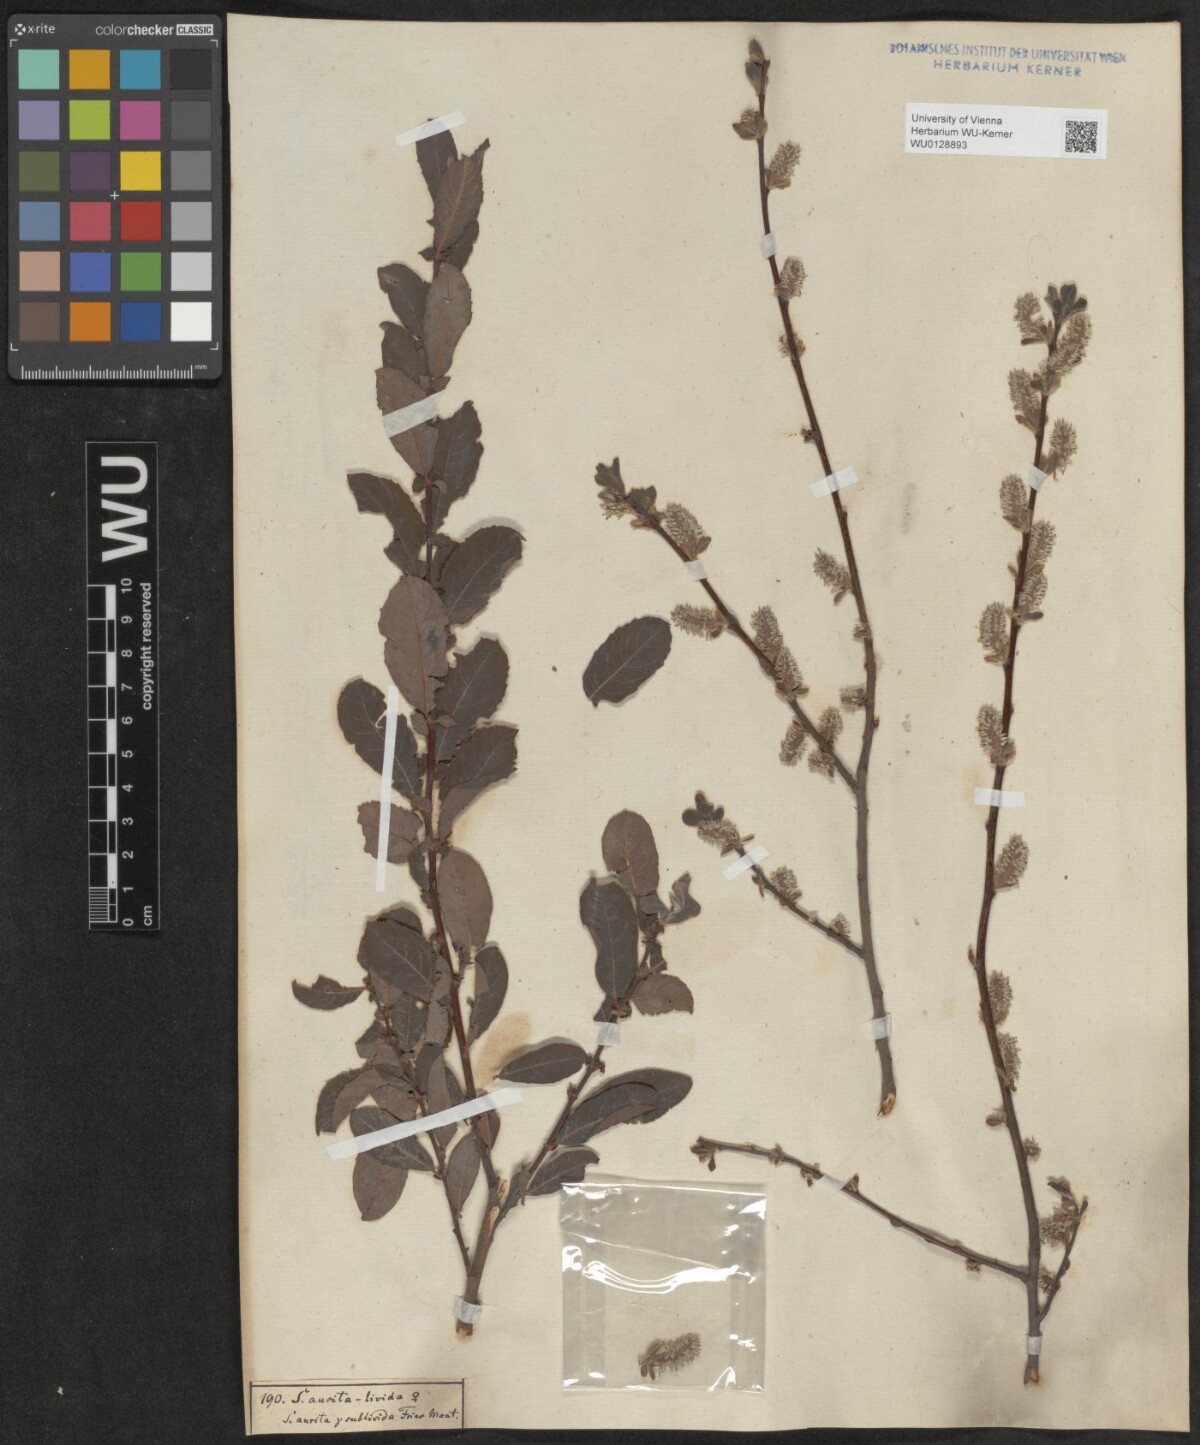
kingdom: Plantae
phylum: Tracheophyta
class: Magnoliopsida
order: Malpighiales
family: Salicaceae
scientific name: Salicaceae
